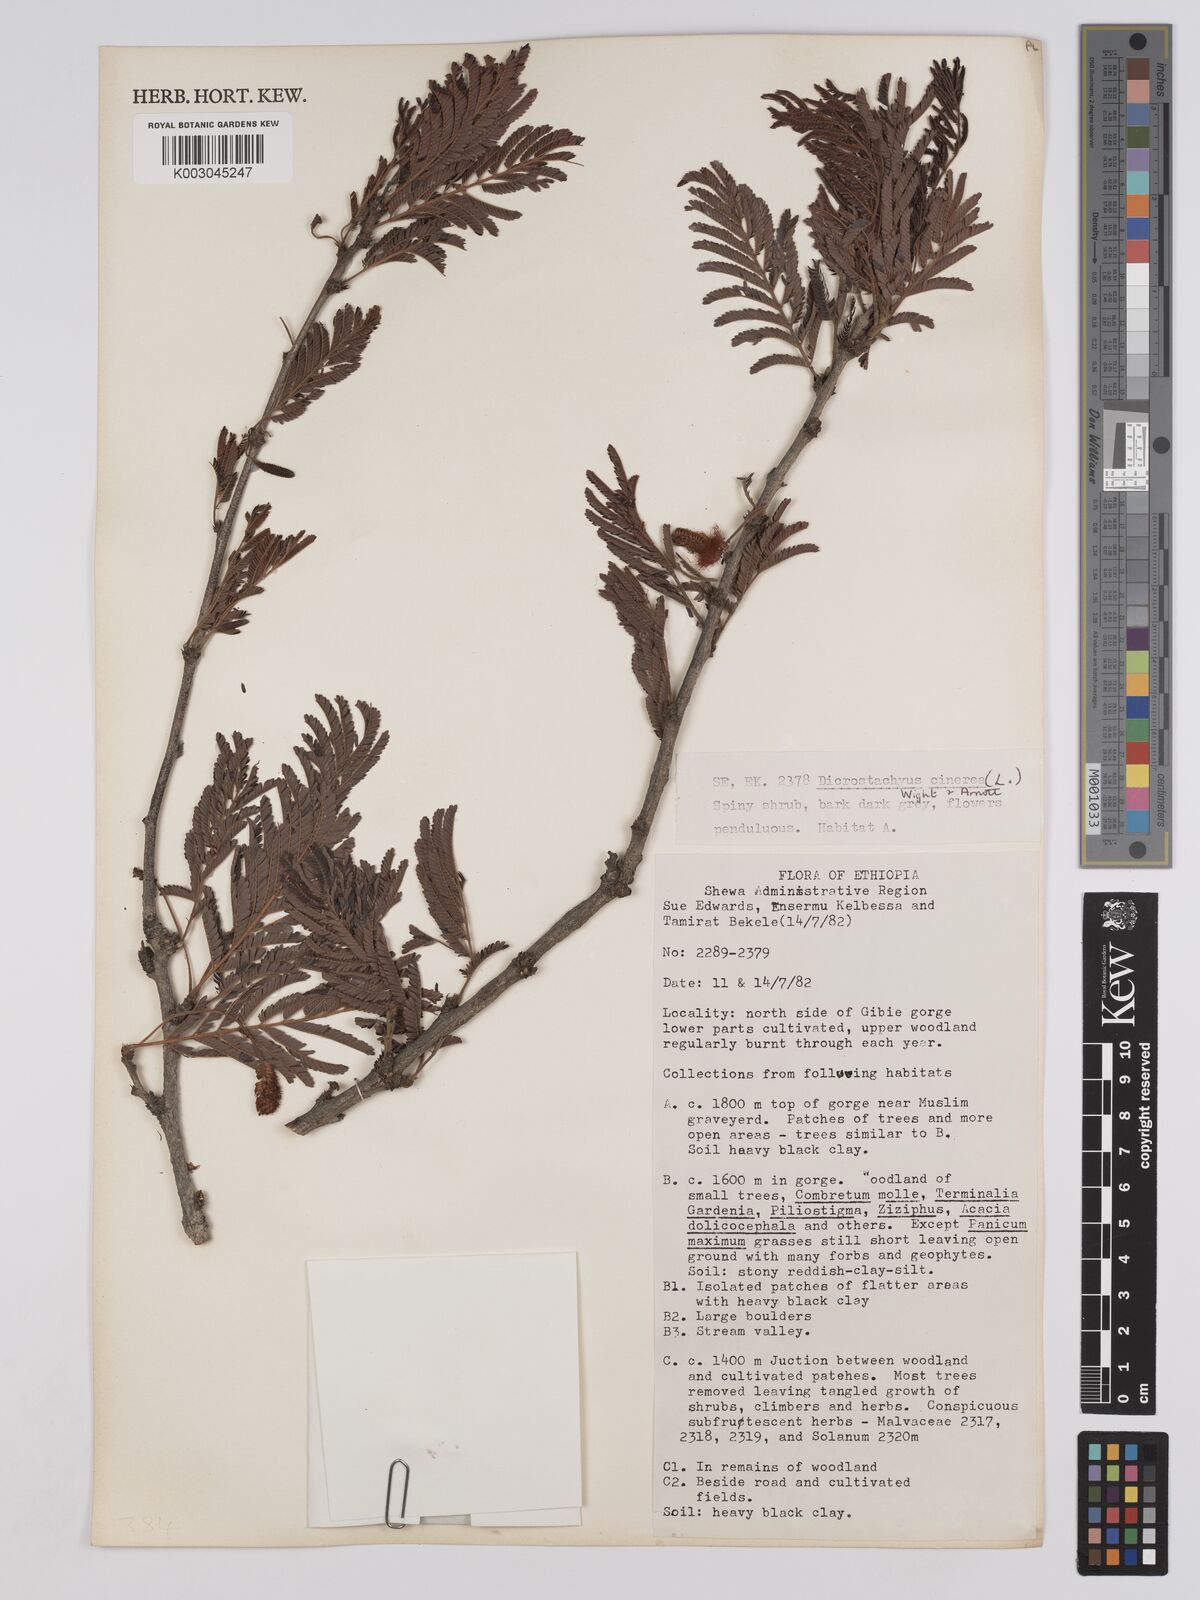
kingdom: Plantae
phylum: Tracheophyta
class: Magnoliopsida
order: Fabales
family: Fabaceae
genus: Dichrostachys
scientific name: Dichrostachys cinerea
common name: Sicklebush
